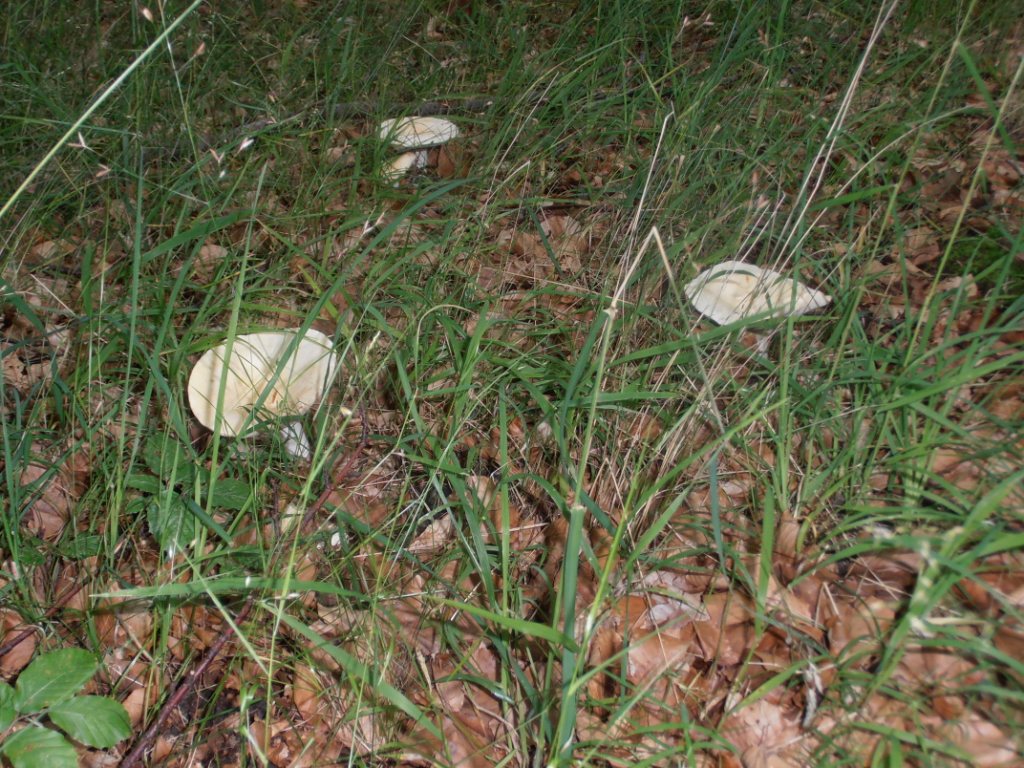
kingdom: Fungi
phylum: Basidiomycota
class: Agaricomycetes
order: Russulales
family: Russulaceae
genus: Lactifluus
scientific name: Lactifluus piperatus
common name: peber-mælkehat
